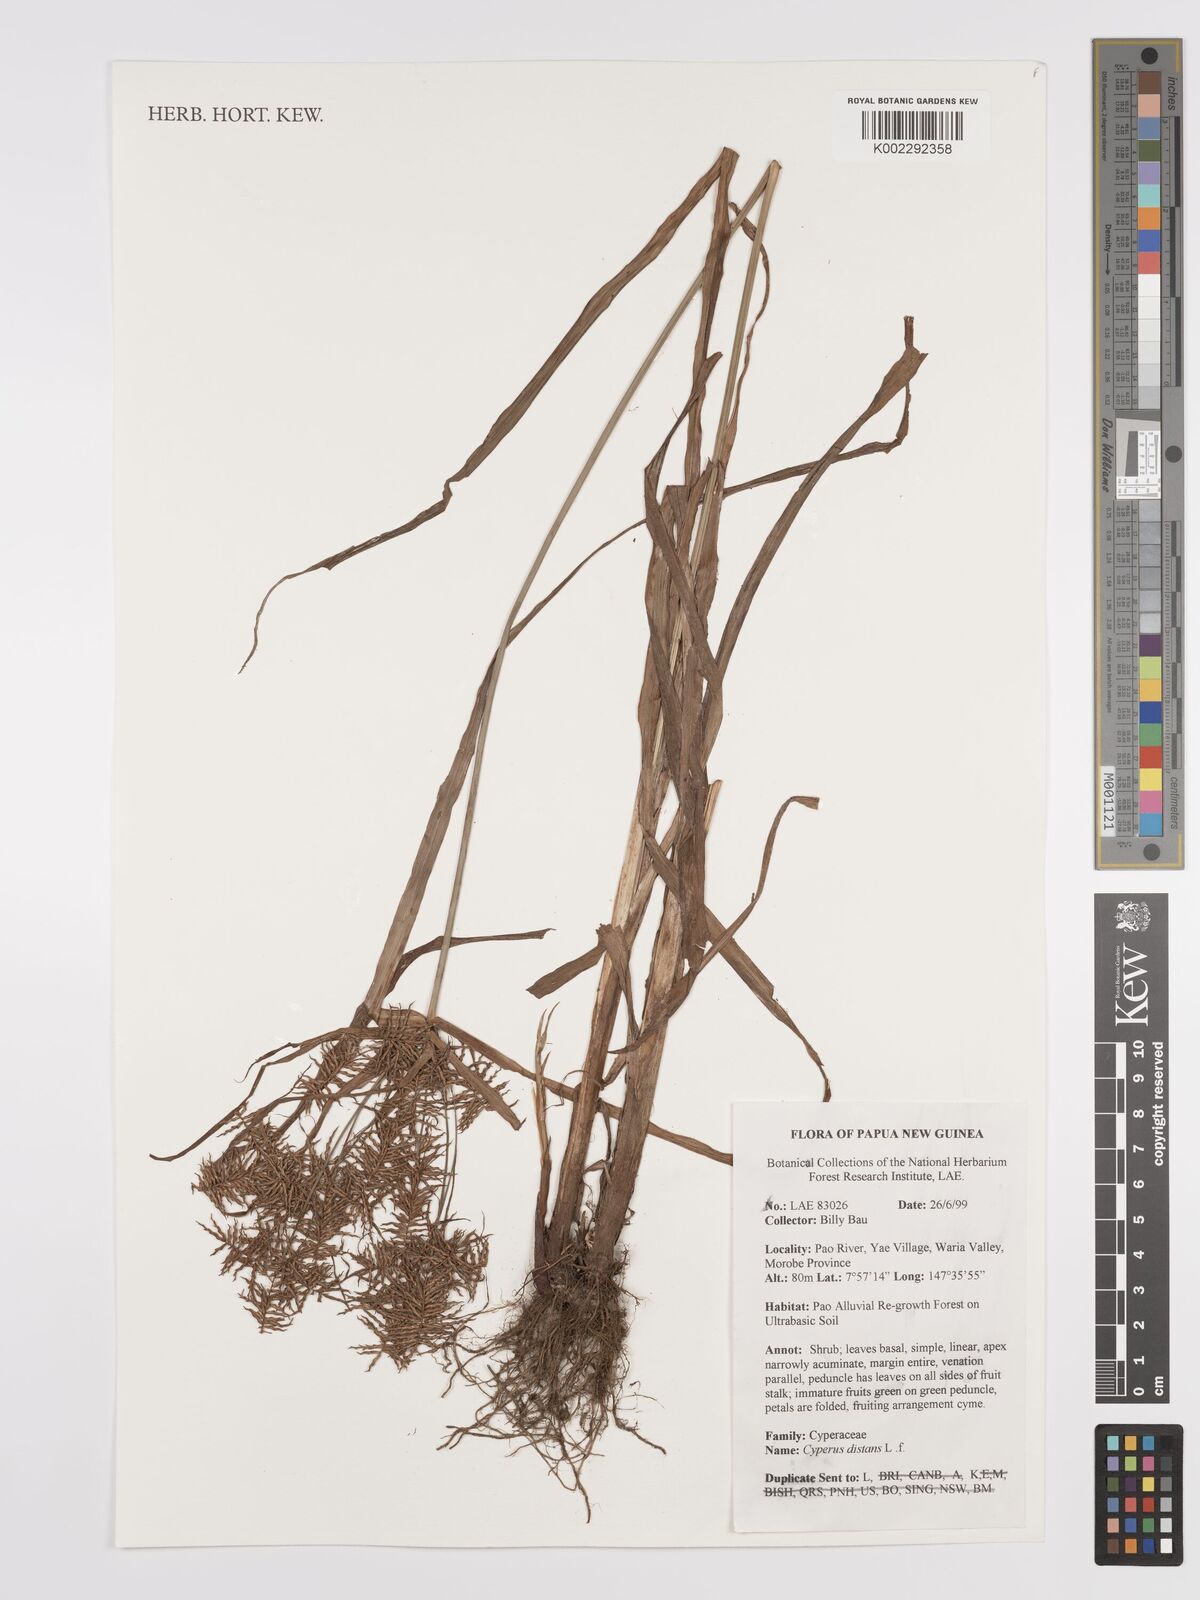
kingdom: Plantae
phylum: Tracheophyta
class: Liliopsida
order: Poales
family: Cyperaceae
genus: Cyperus
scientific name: Cyperus distans
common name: Slender cyperus
